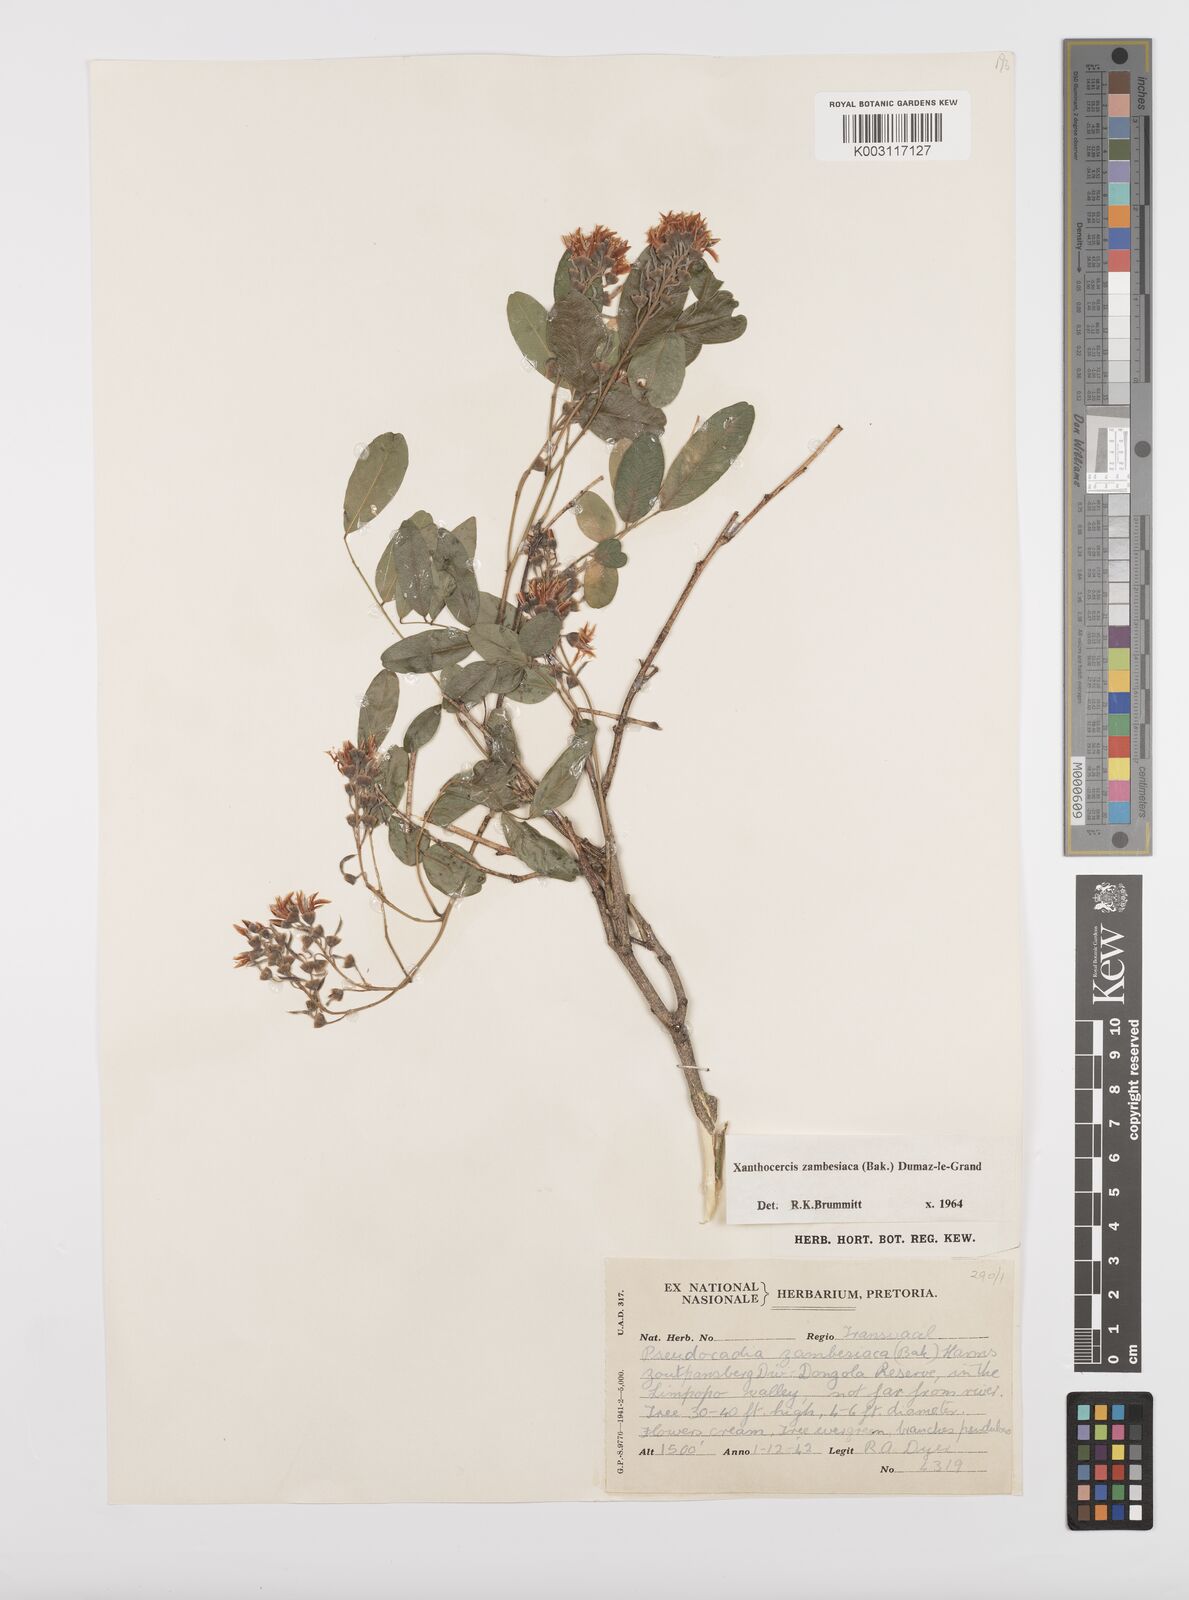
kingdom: Plantae
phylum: Tracheophyta
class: Magnoliopsida
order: Fabales
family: Fabaceae
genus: Xanthocercis
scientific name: Xanthocercis zambesiaca
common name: Nyala-tree
